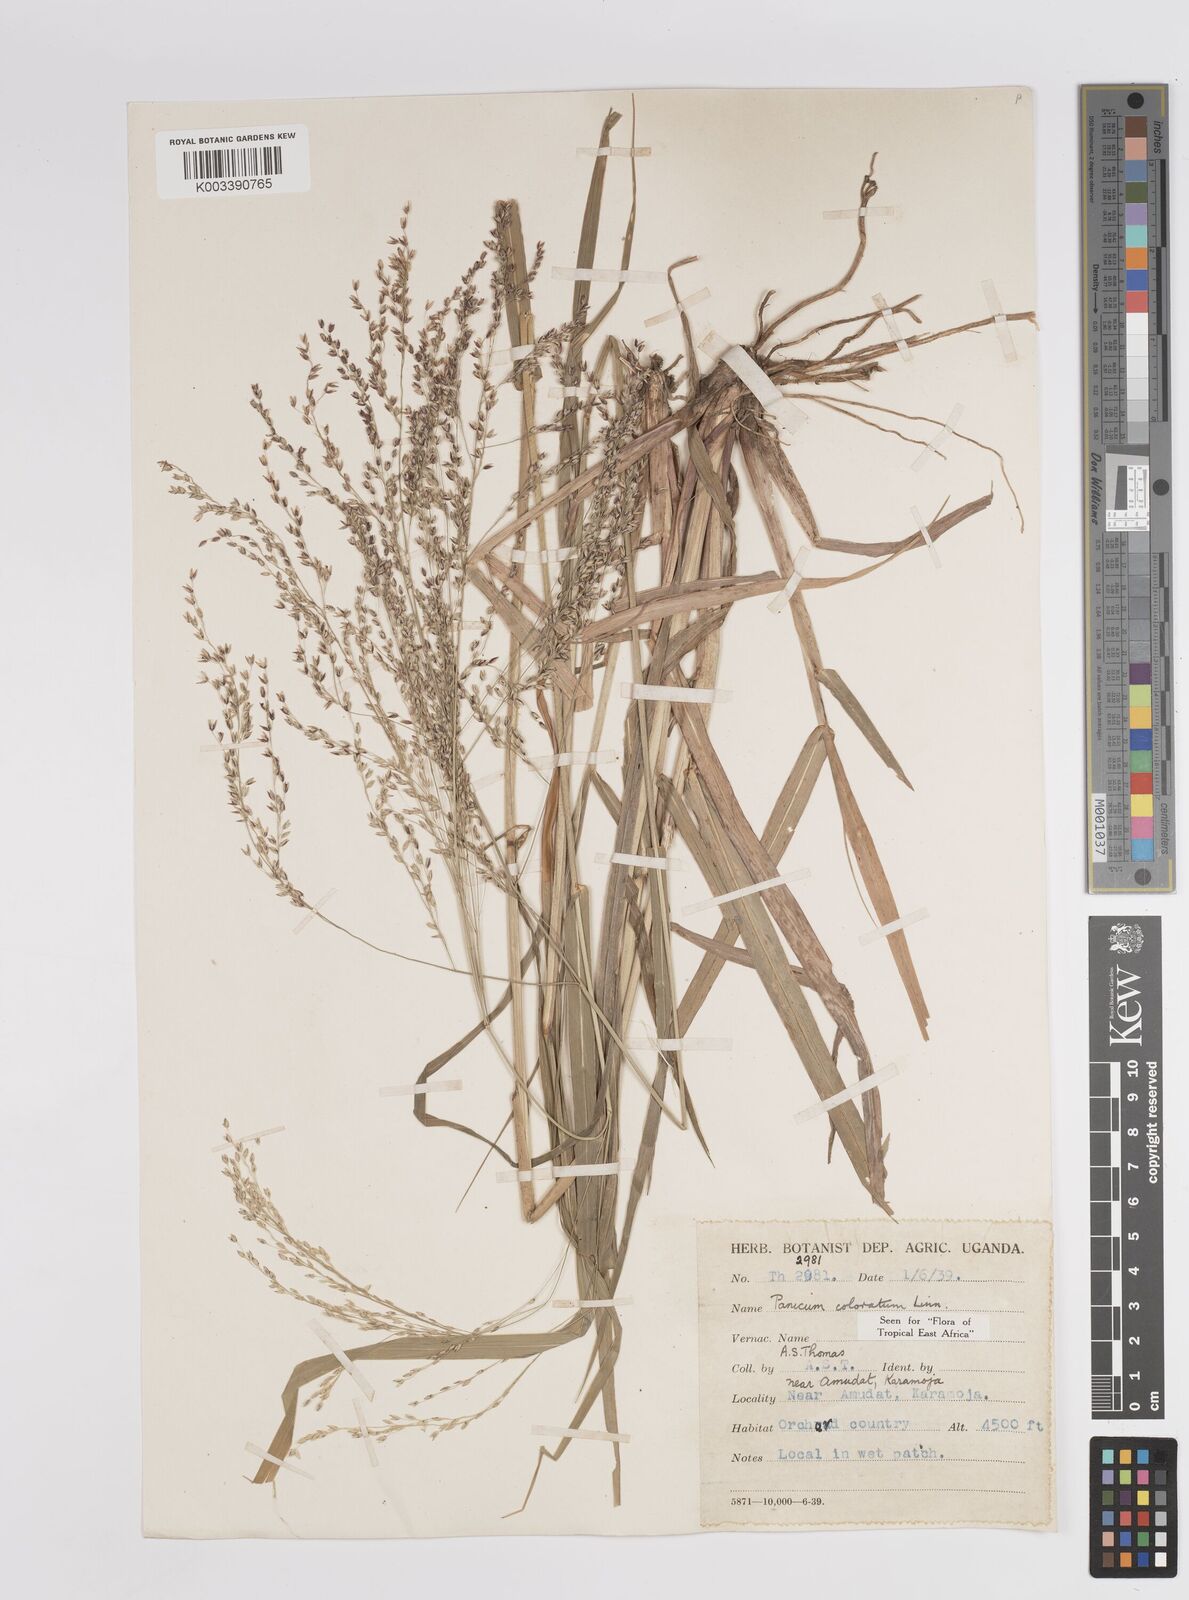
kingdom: Plantae
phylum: Tracheophyta
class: Liliopsida
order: Poales
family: Poaceae
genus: Panicum
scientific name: Panicum coloratum
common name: Kleingrass
